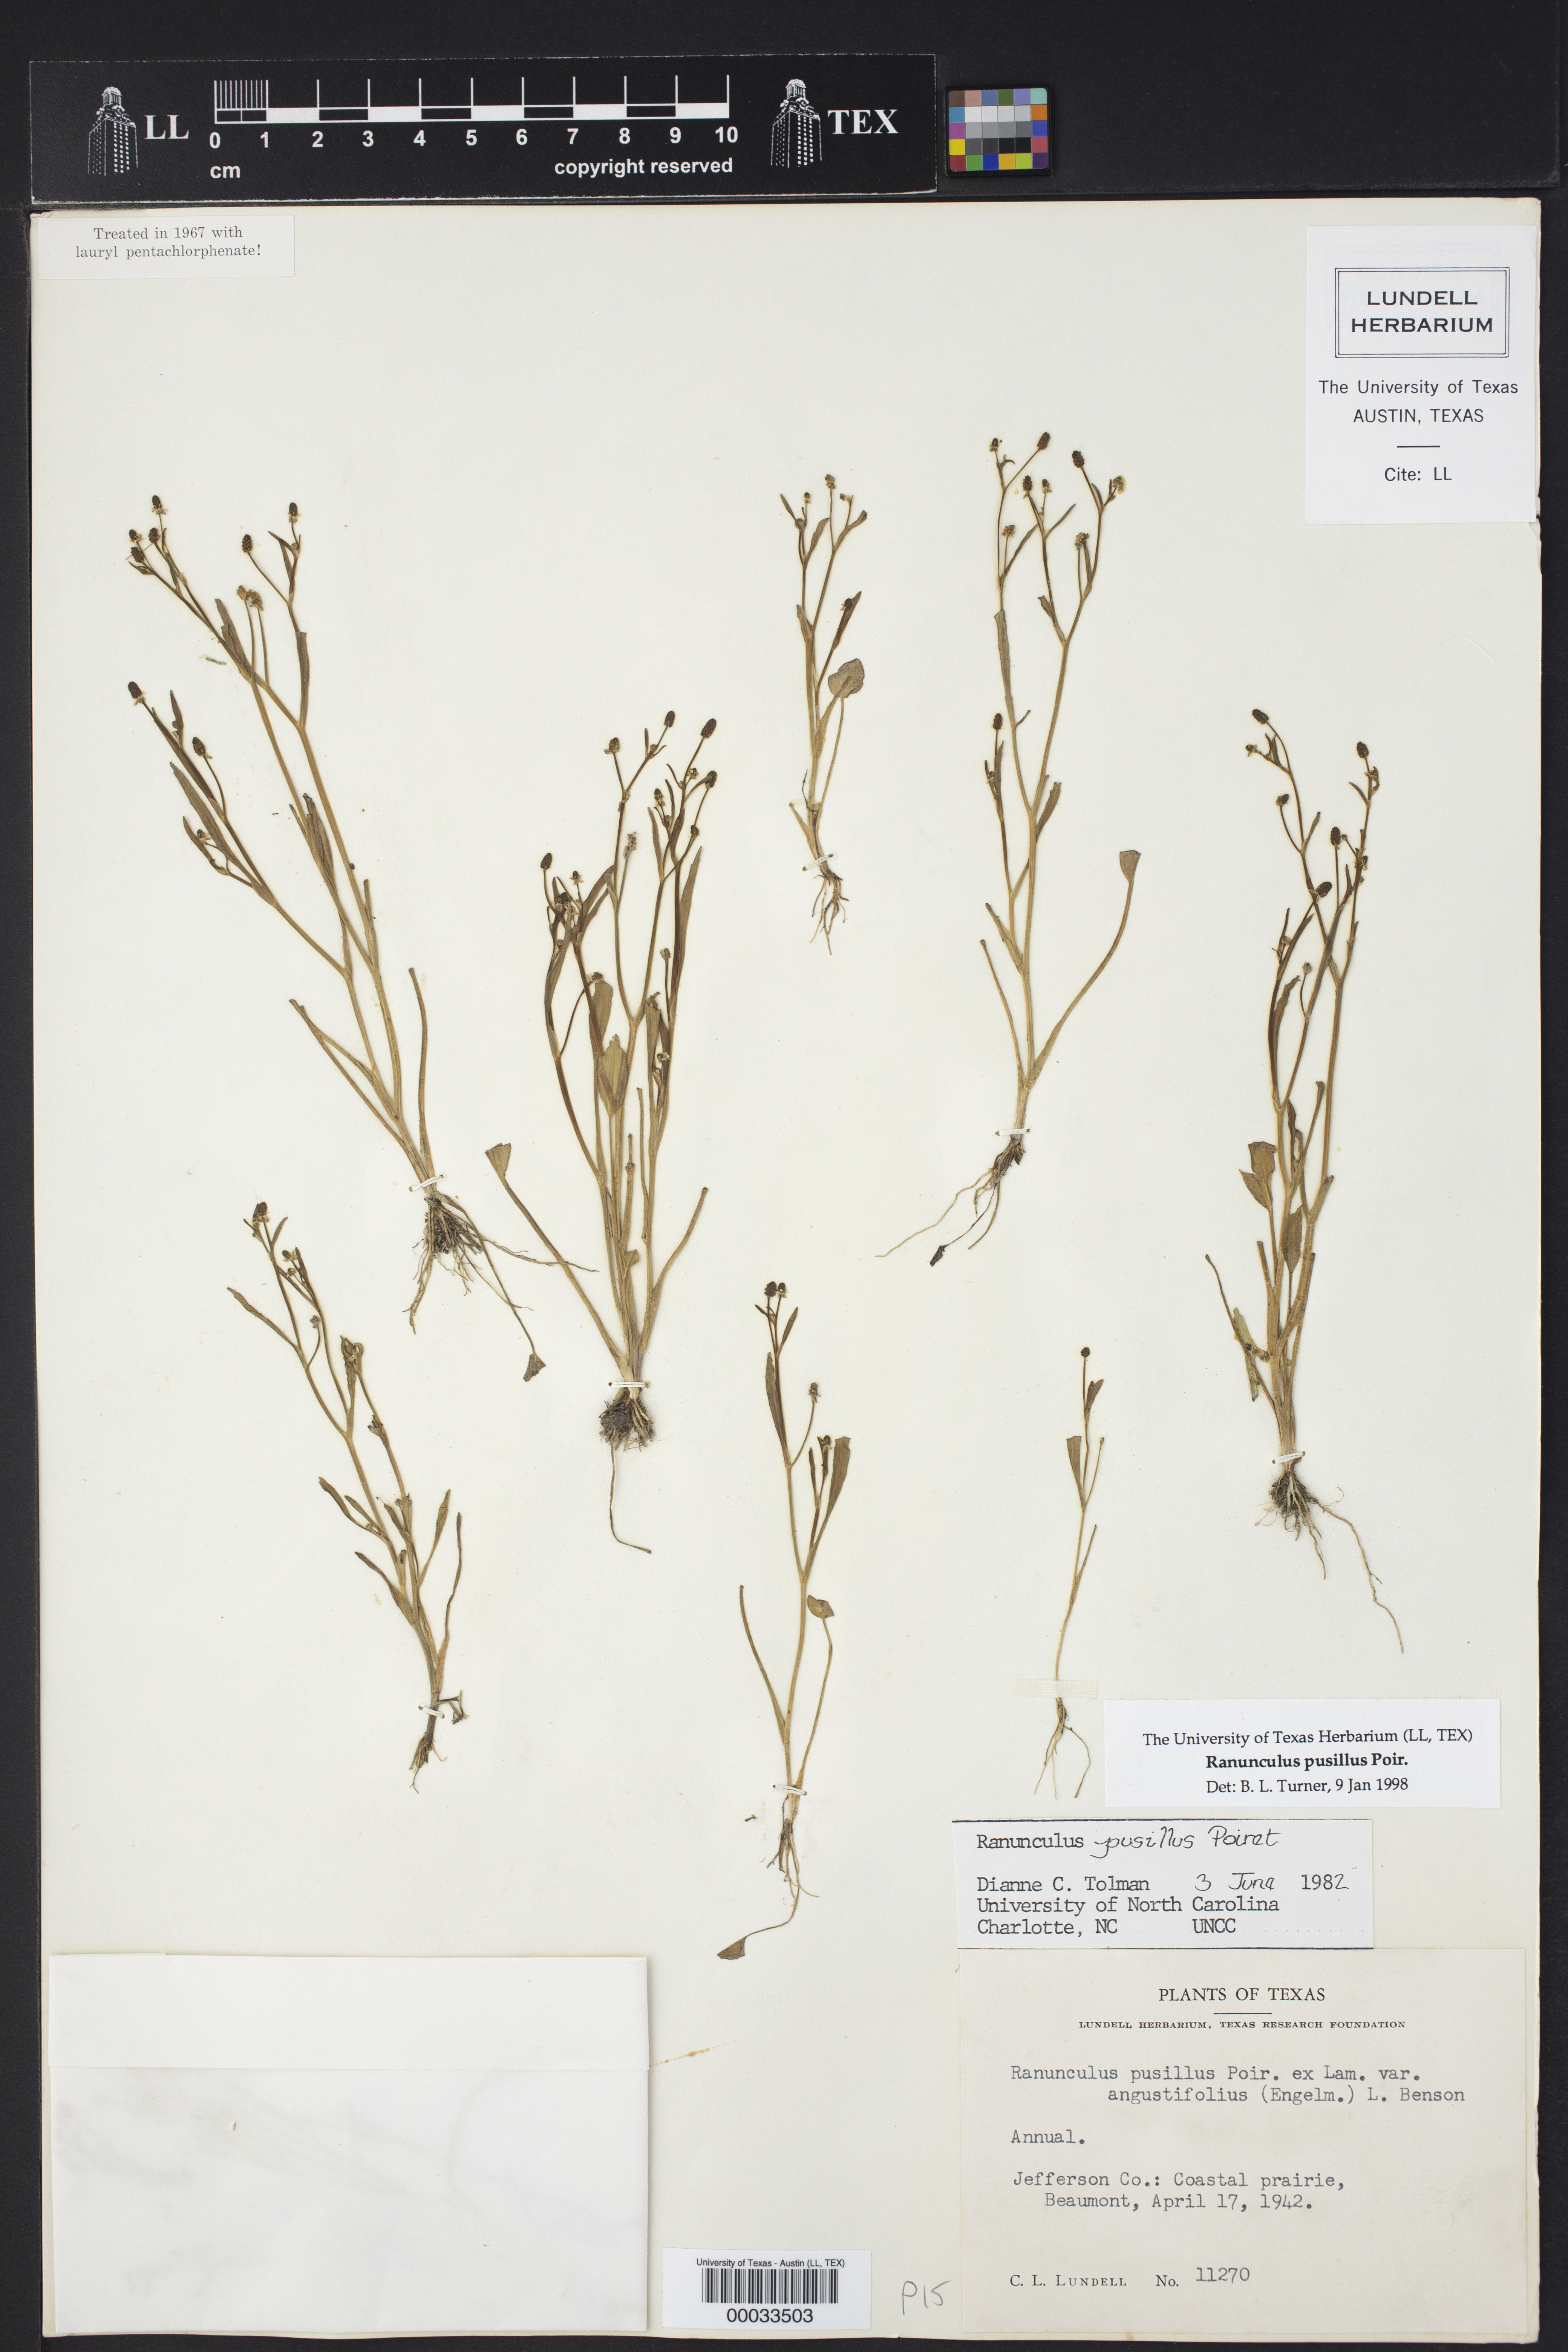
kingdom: Plantae
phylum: Tracheophyta
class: Magnoliopsida
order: Ranunculales
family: Ranunculaceae
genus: Ranunculus
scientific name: Ranunculus pusillus
